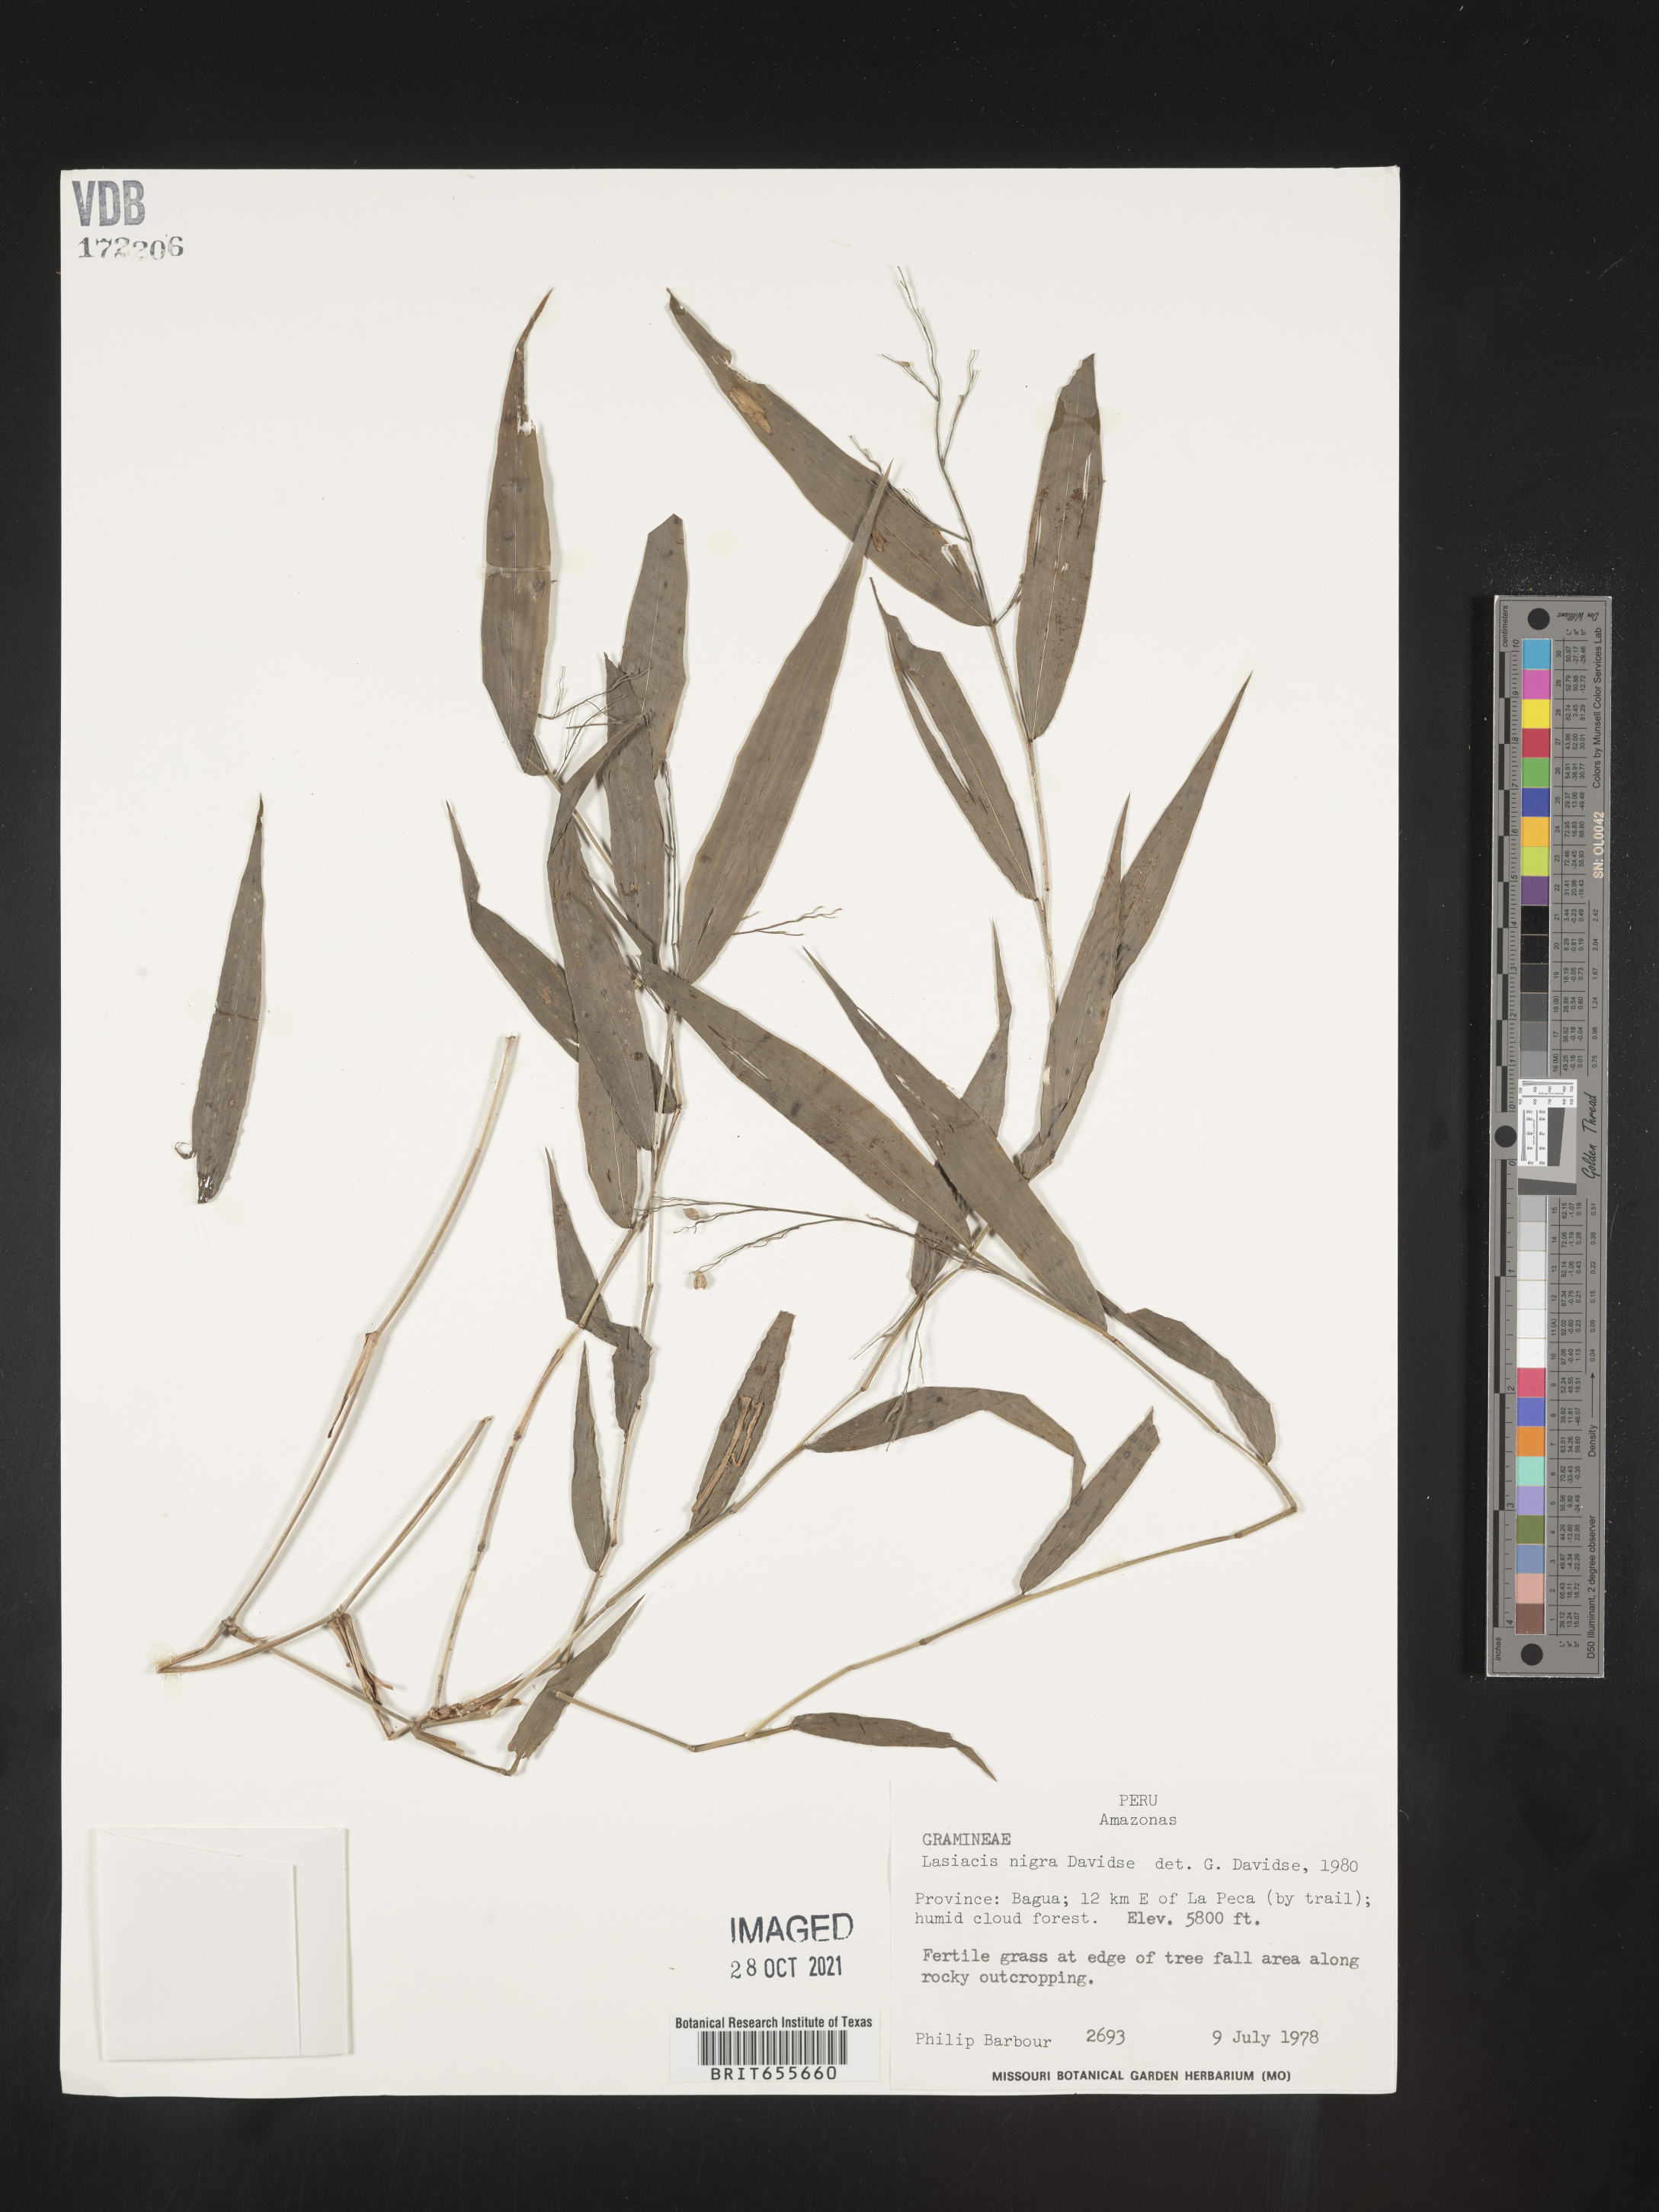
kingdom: Plantae
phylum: Tracheophyta
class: Liliopsida
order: Poales
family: Poaceae
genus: Lasiacis
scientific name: Lasiacis
